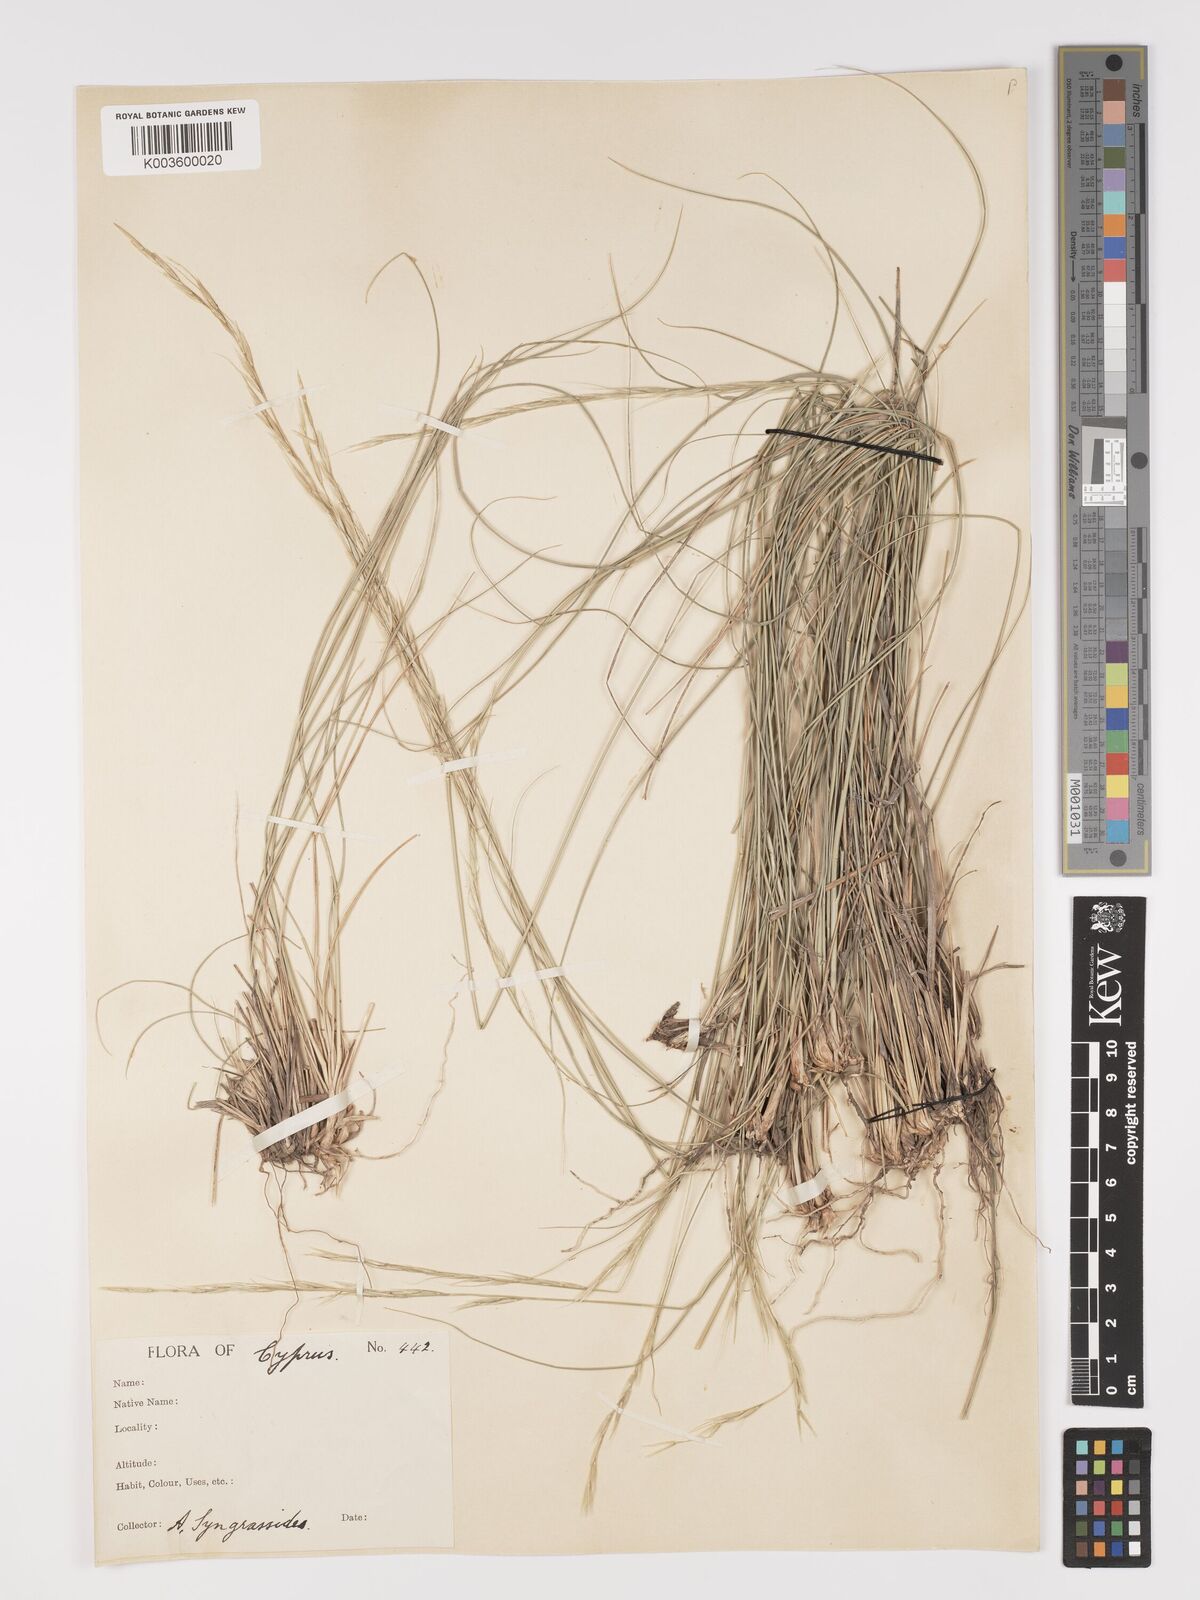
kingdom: Plantae
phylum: Tracheophyta
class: Liliopsida
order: Poales
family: Poaceae
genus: Achnatherum
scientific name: Achnatherum bromoides
